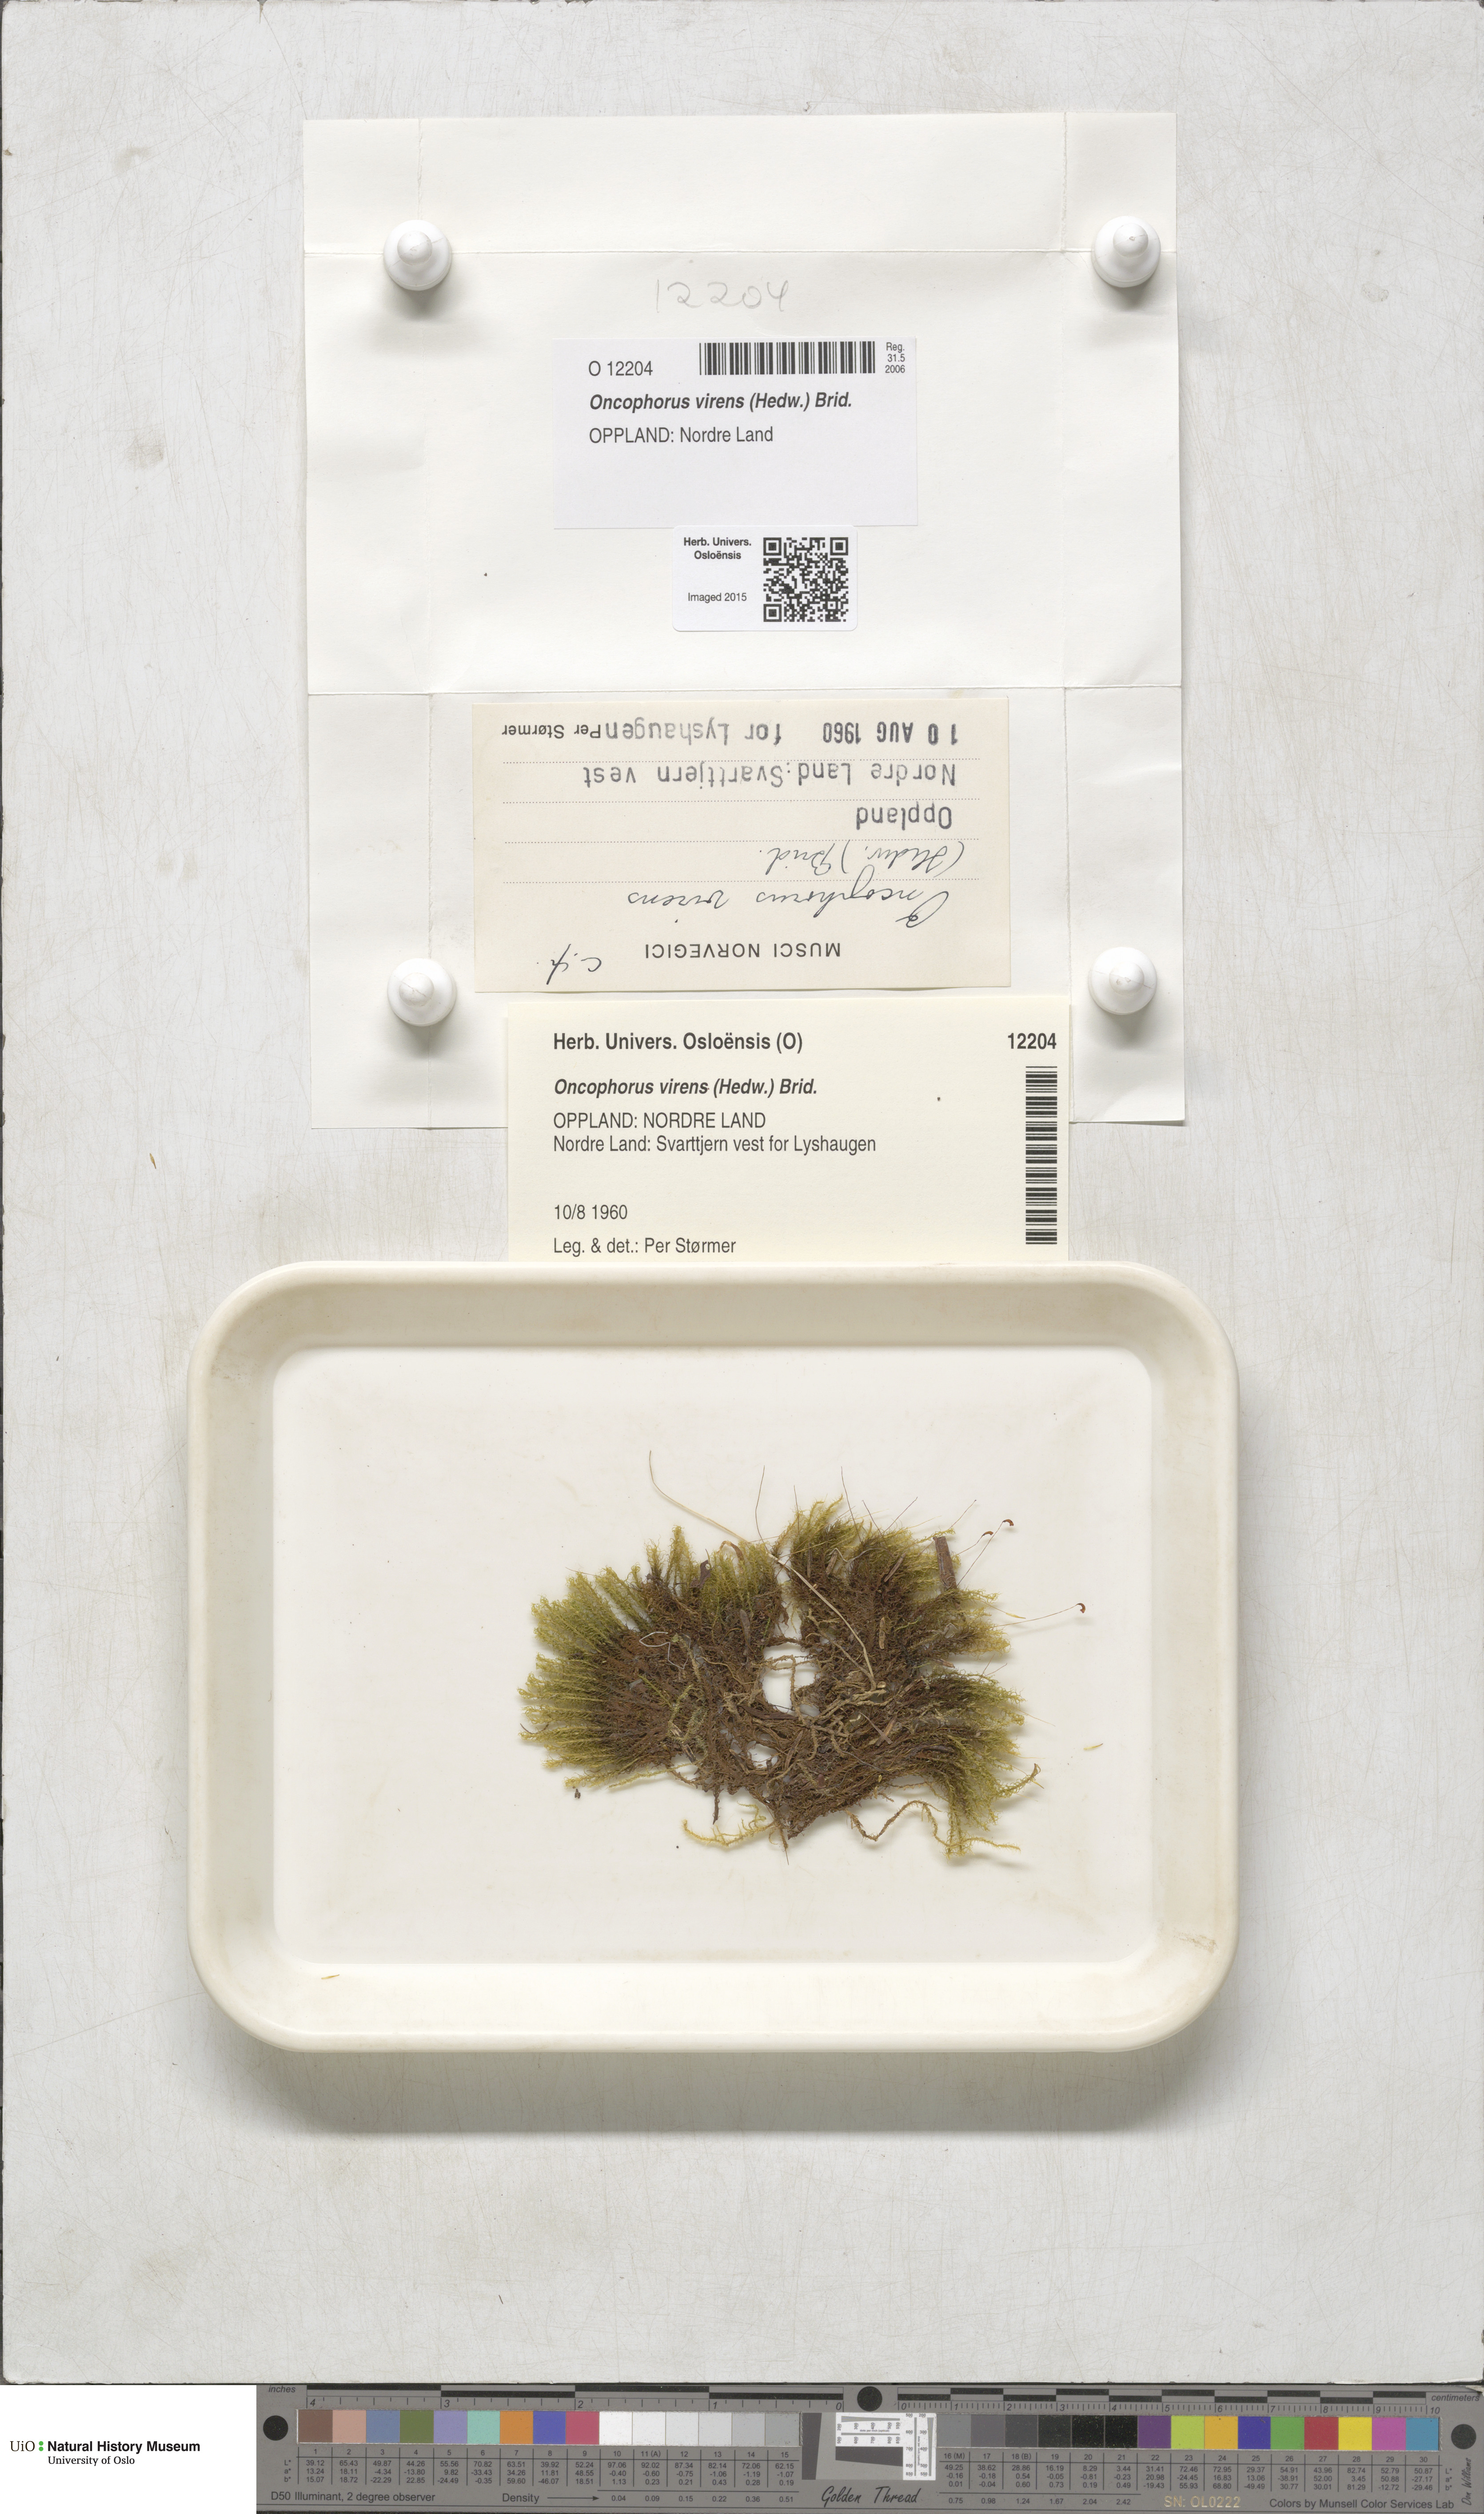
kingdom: Plantae
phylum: Bryophyta
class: Bryopsida
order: Dicranales
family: Rhabdoweisiaceae
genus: Oncophorus
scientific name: Oncophorus virens
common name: Green spur moss
